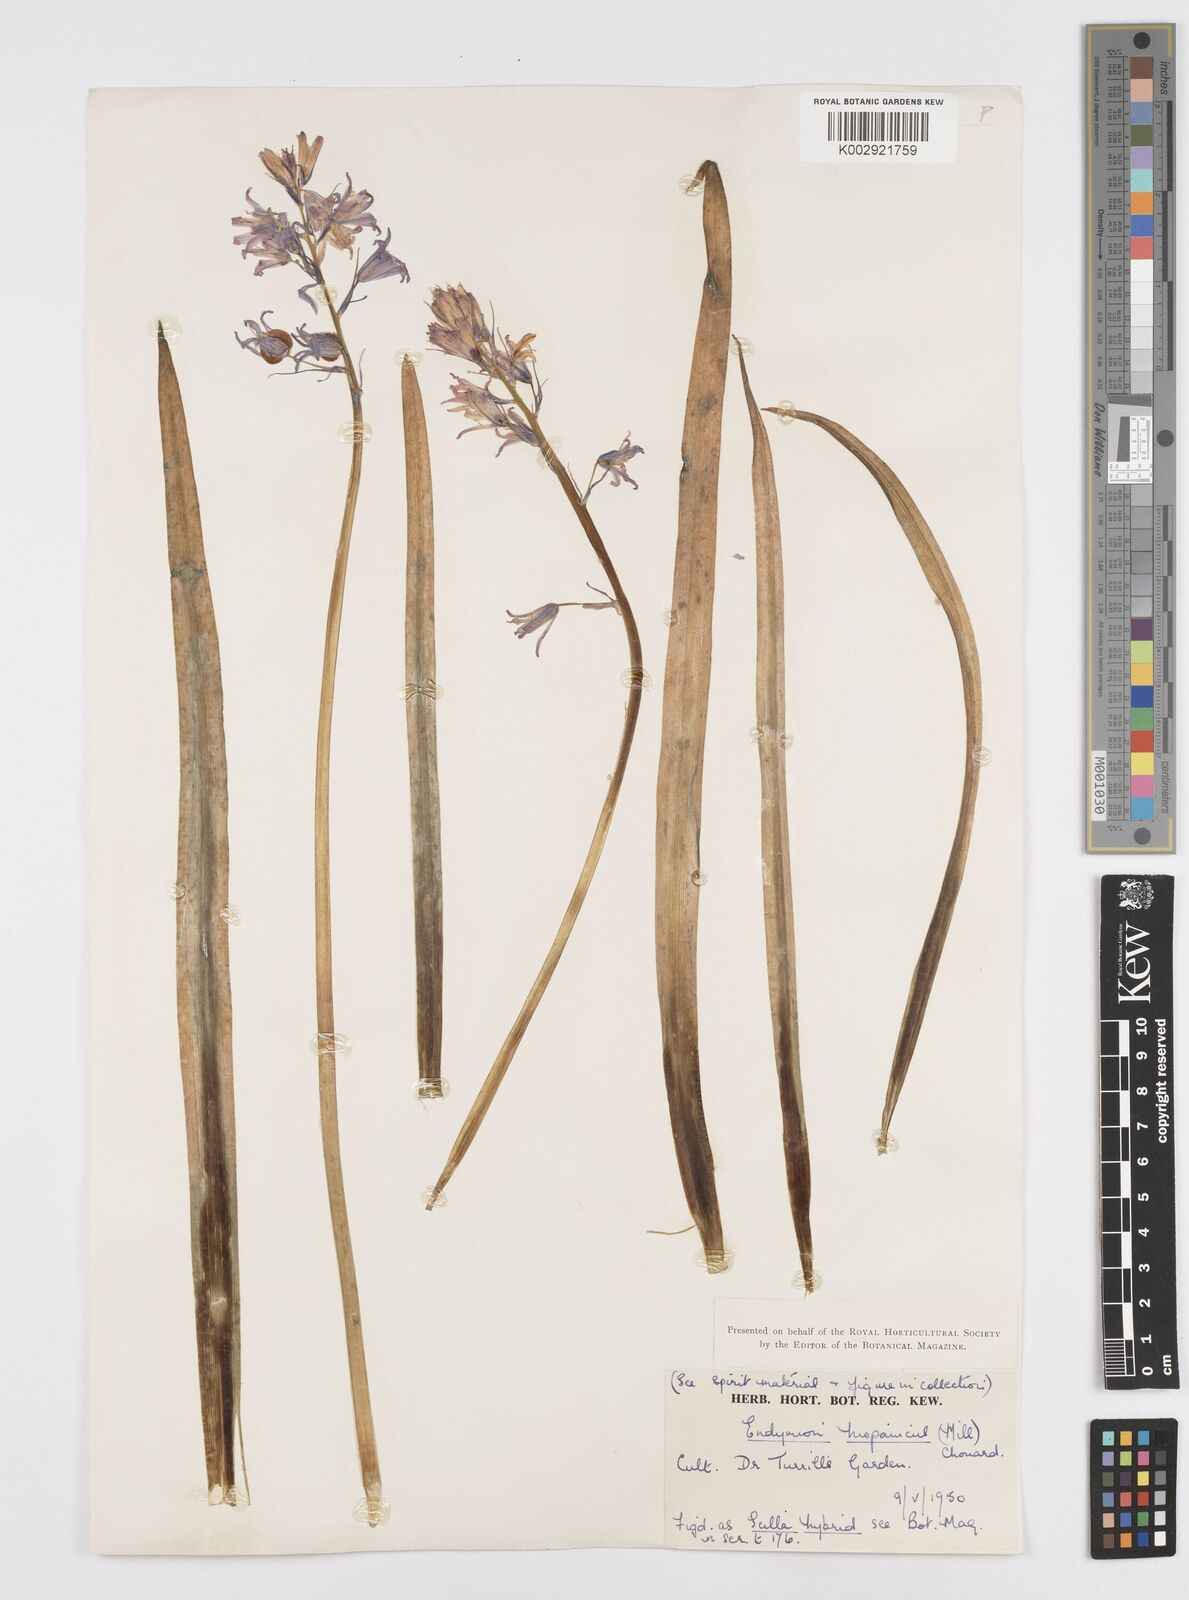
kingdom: Plantae
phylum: Tracheophyta
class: Liliopsida
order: Asparagales
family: Asparagaceae
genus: Hyacinthoides
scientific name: Hyacinthoides hispanica
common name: Spanish bluebell
